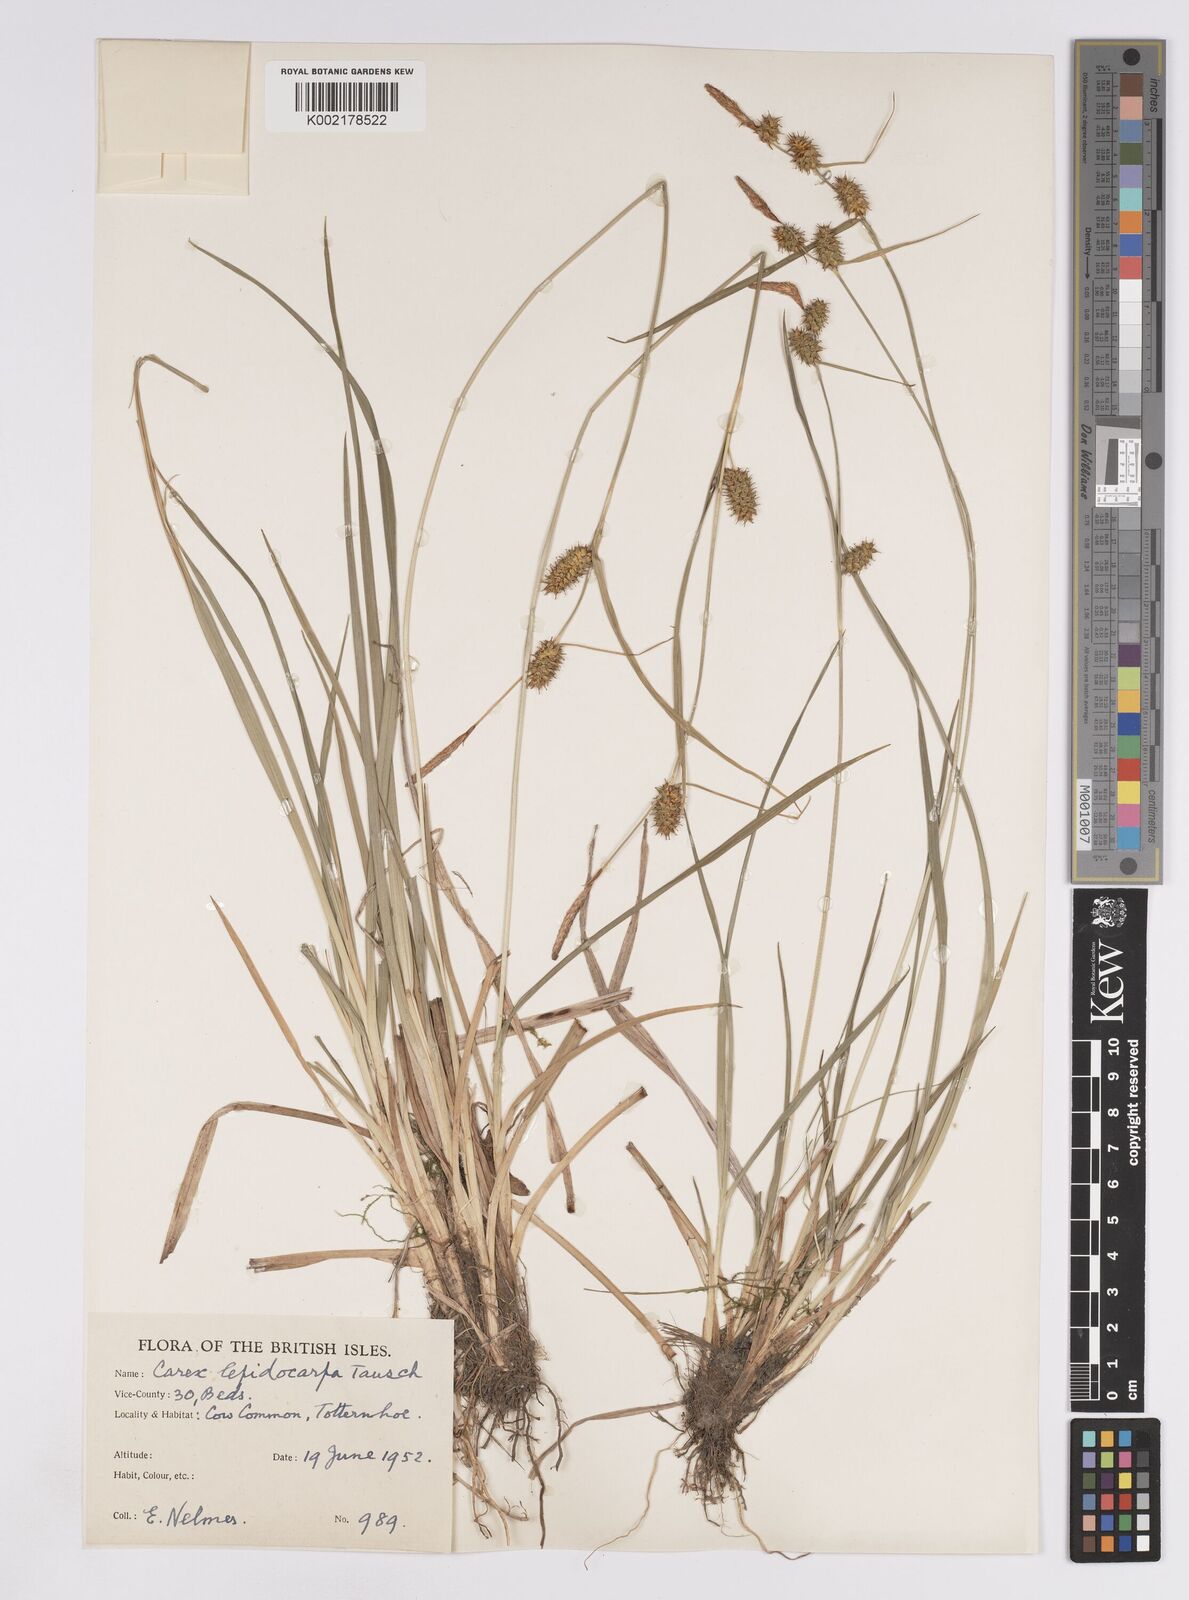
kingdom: Plantae
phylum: Tracheophyta
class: Liliopsida
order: Poales
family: Cyperaceae
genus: Carex
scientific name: Carex lepidocarpa
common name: Long-stalked yellow-sedge
